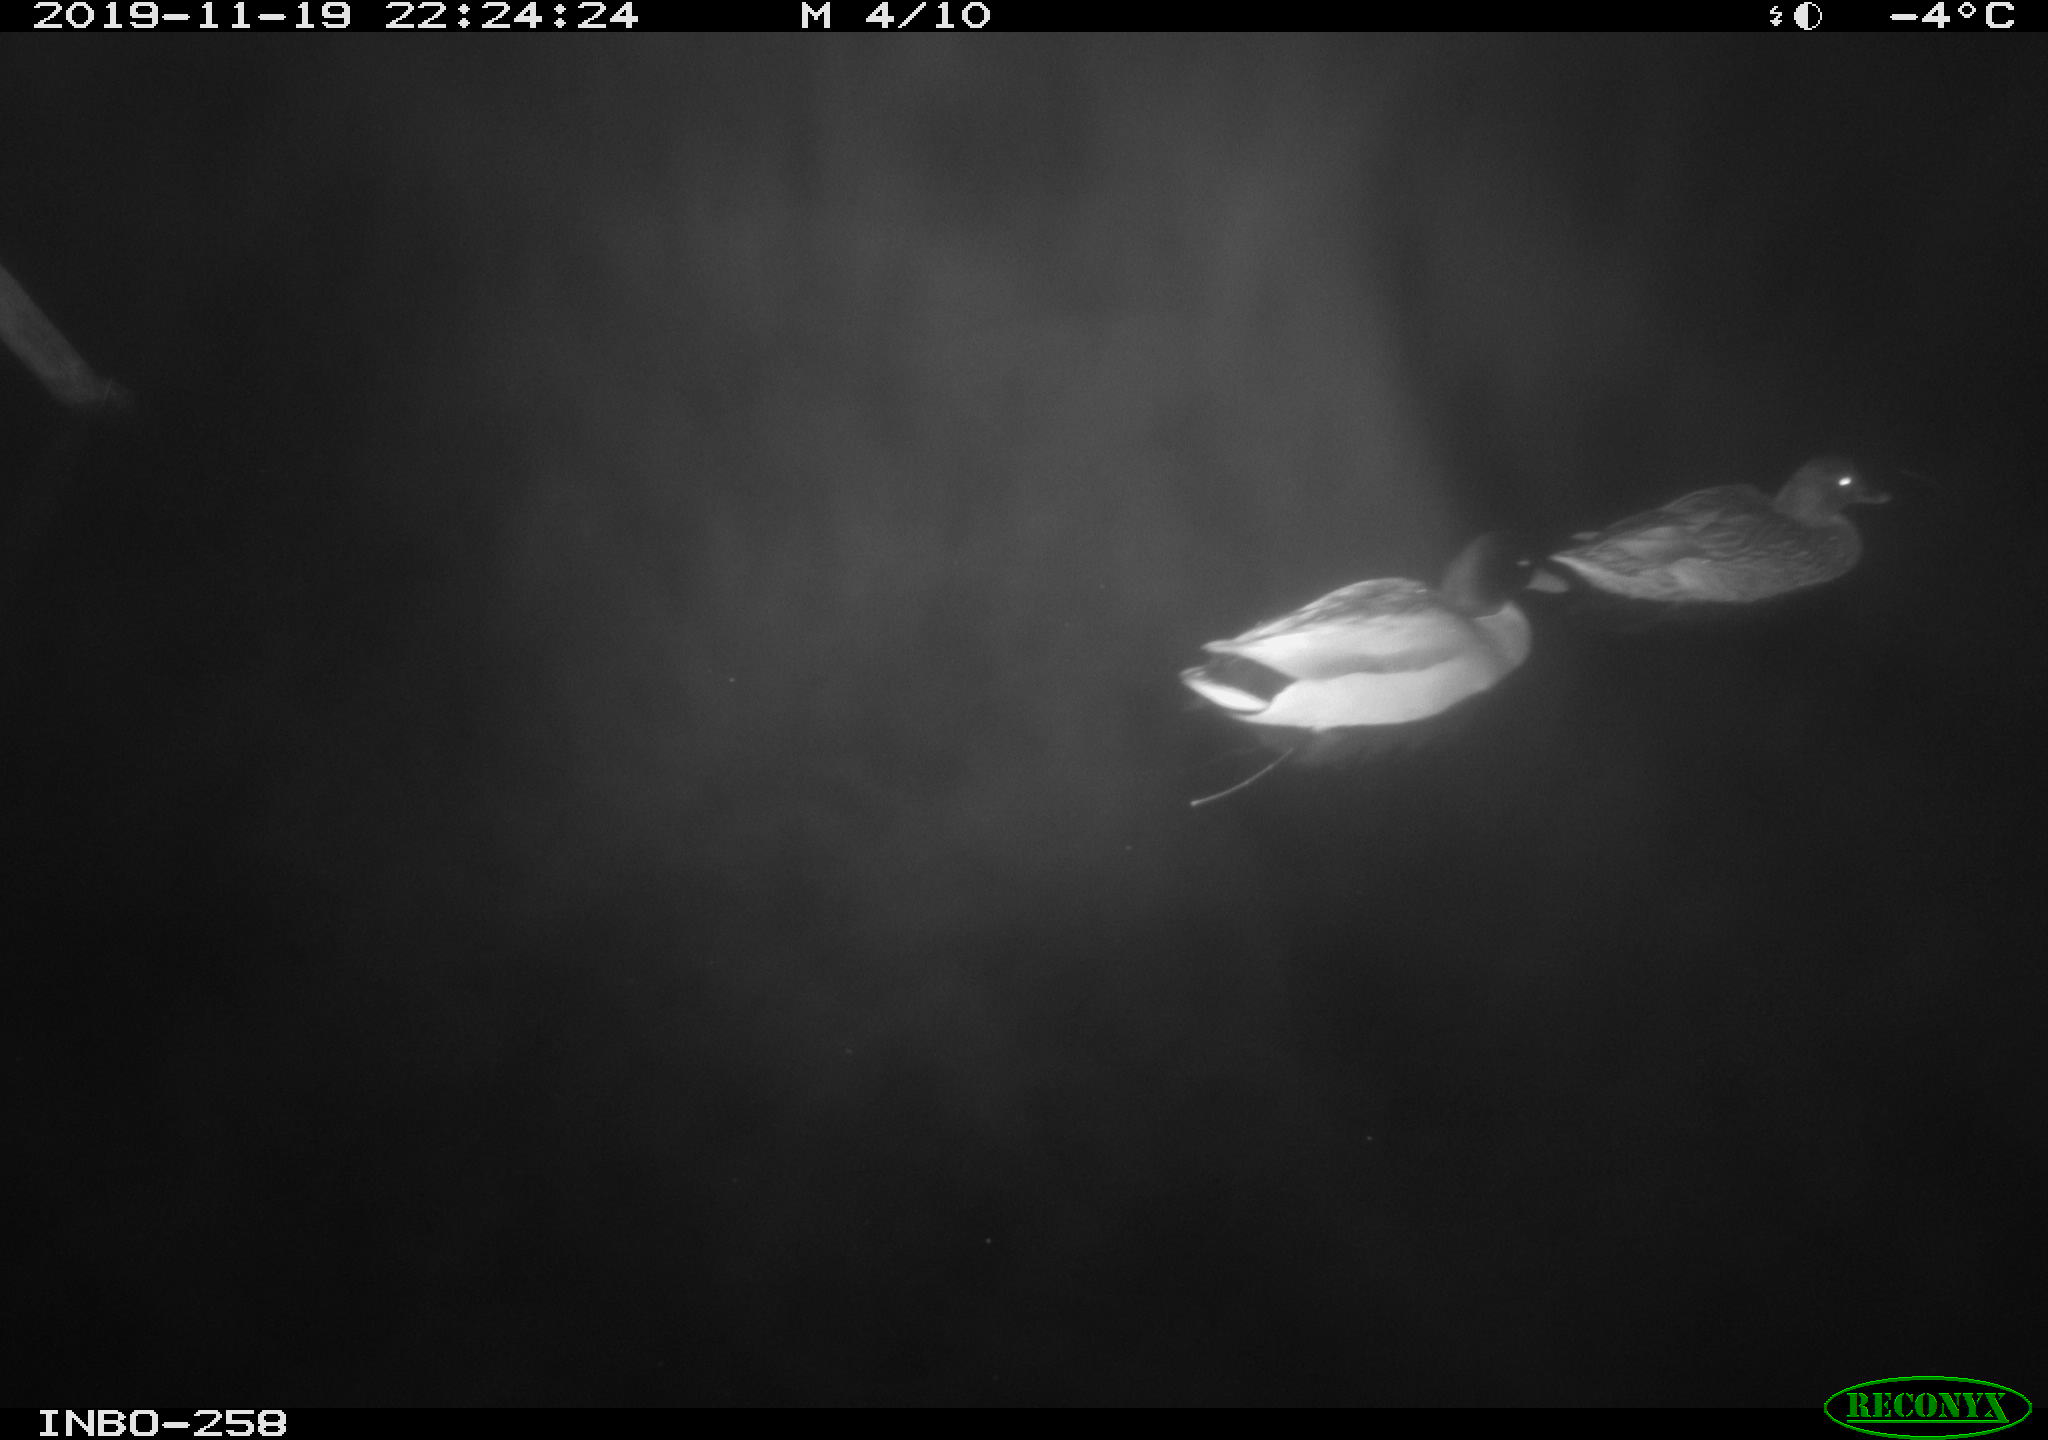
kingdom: Animalia
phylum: Chordata
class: Aves
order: Anseriformes
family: Anatidae
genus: Anas
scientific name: Anas platyrhynchos
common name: Mallard
